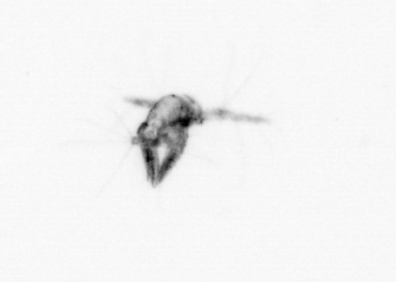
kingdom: Animalia
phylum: Arthropoda
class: Copepoda
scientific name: Copepoda
